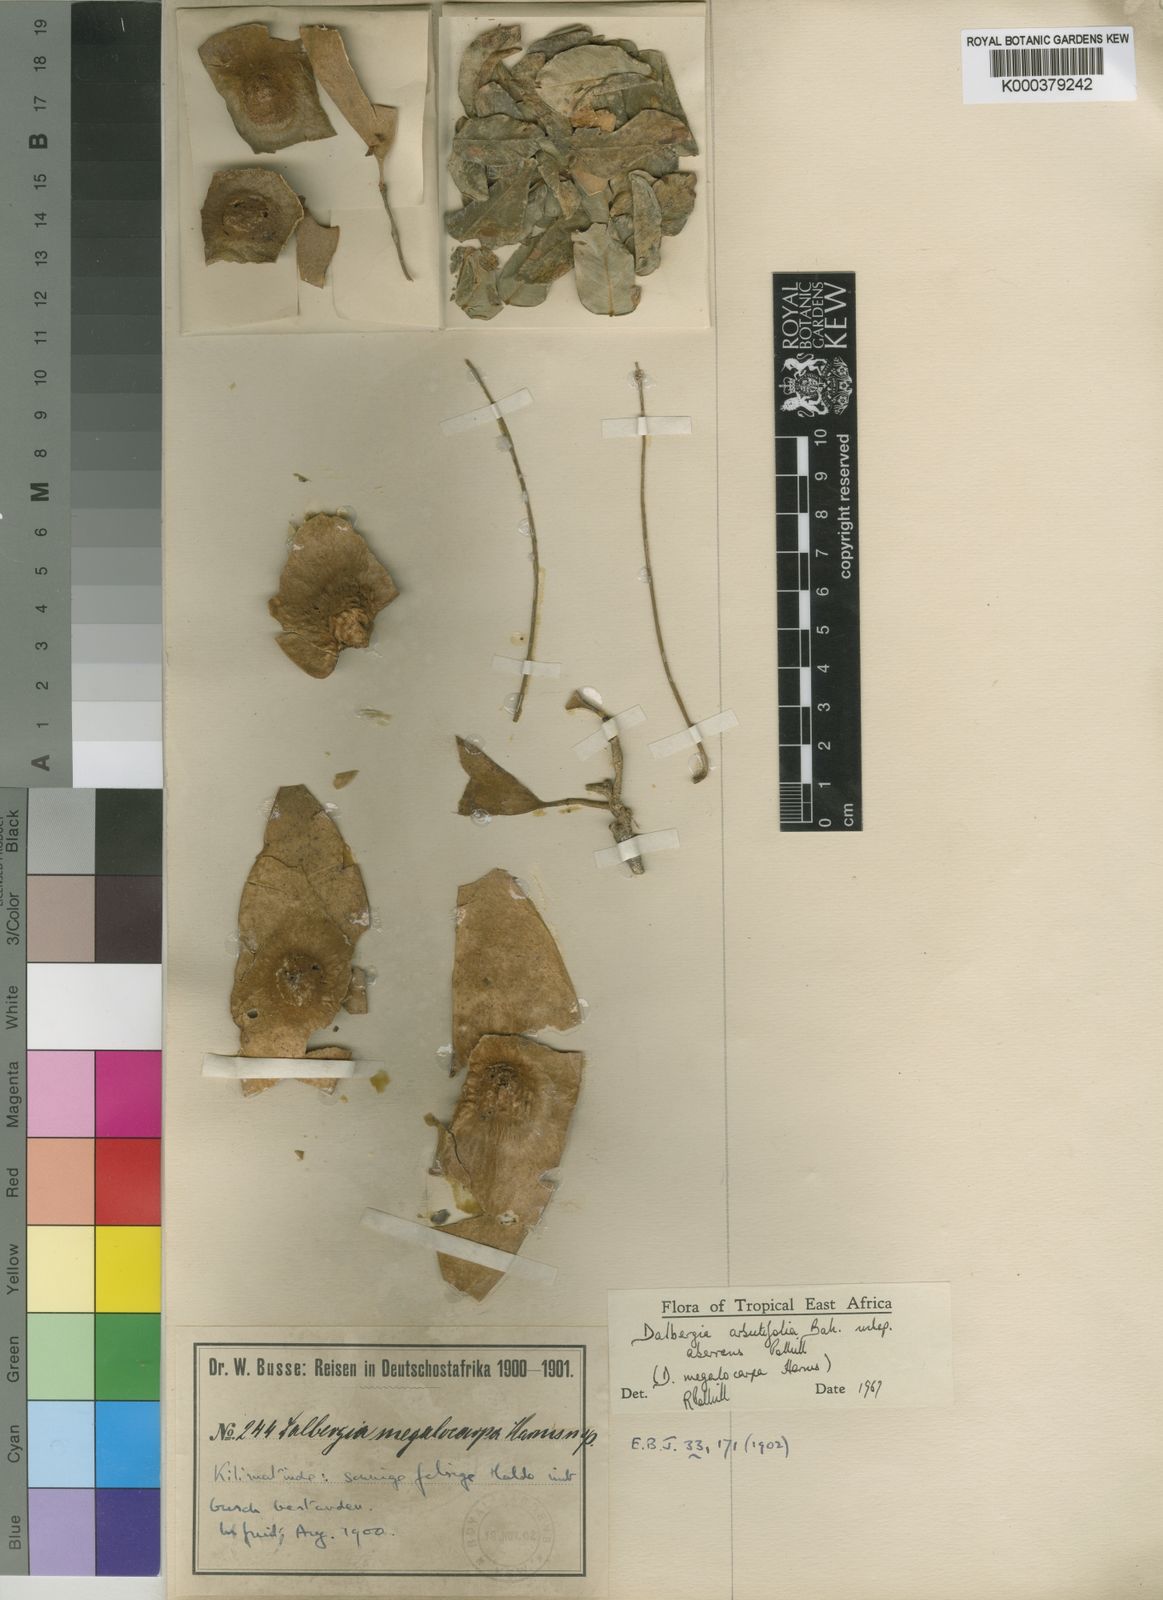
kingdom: Plantae
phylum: Tracheophyta
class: Magnoliopsida
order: Fabales
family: Fabaceae
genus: Dalbergia
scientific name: Dalbergia arbutifolia
